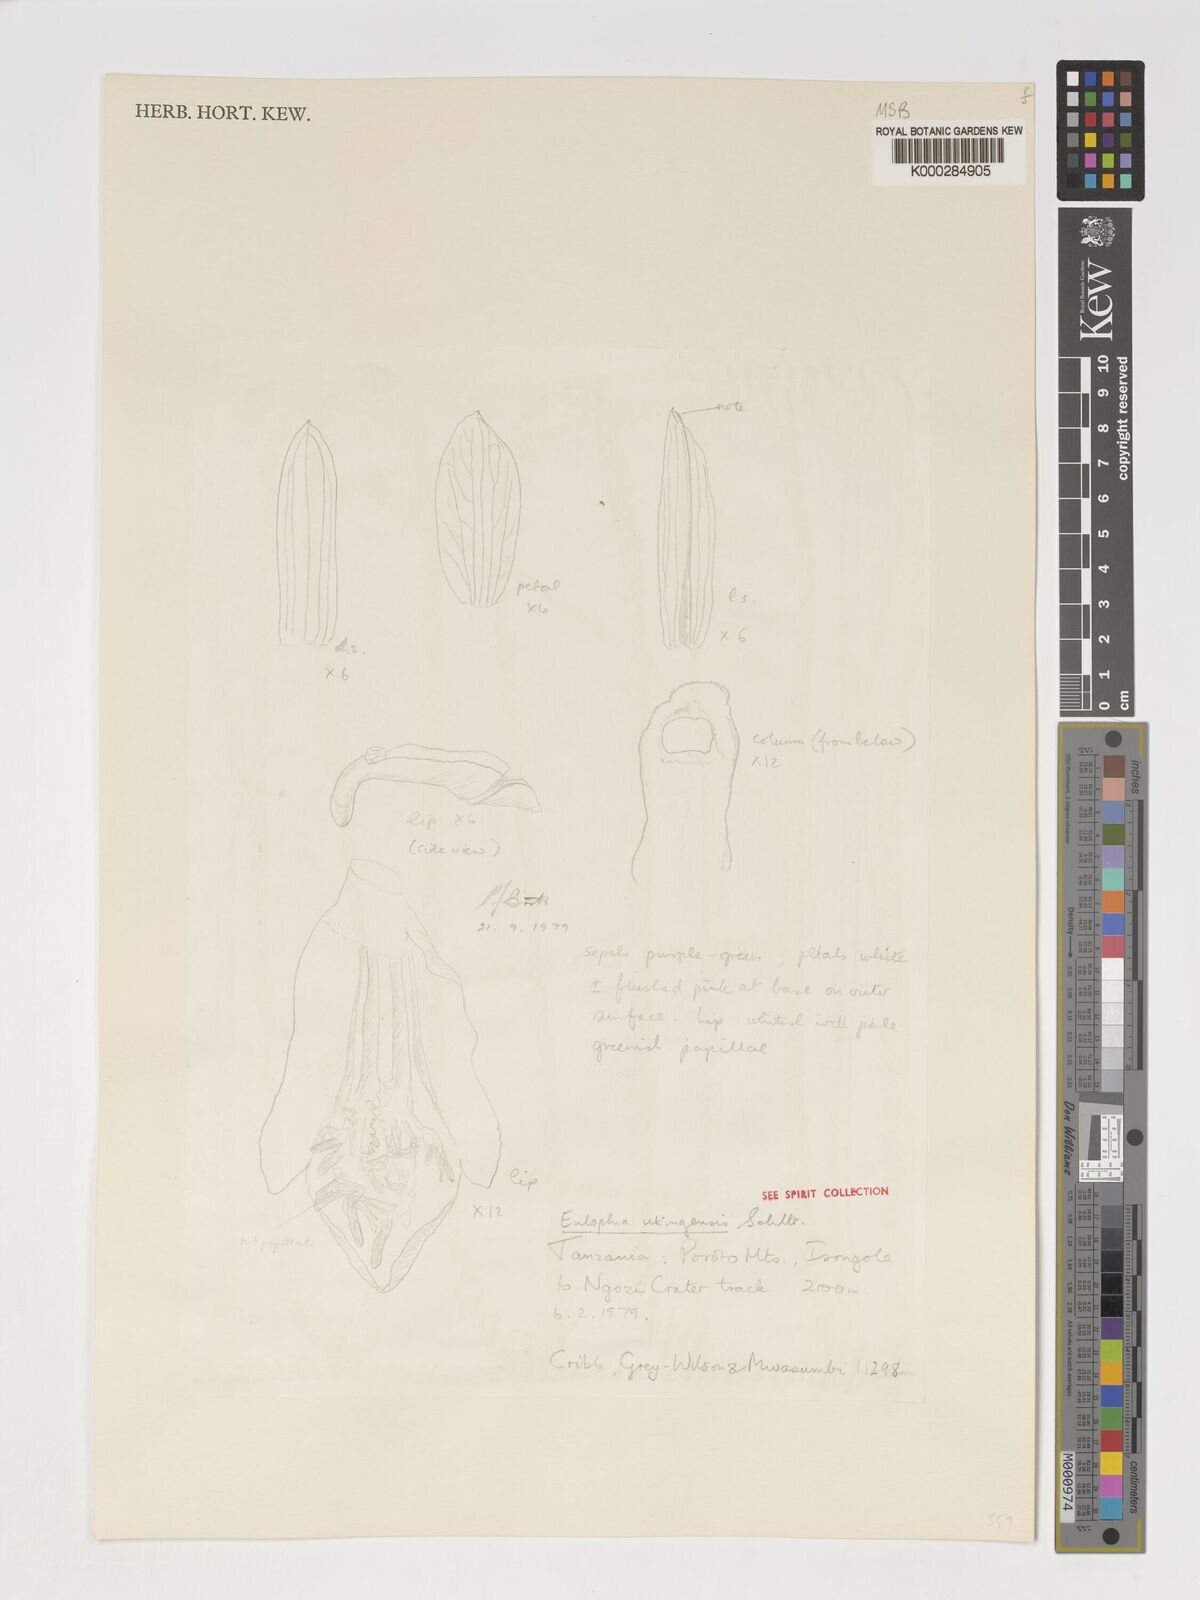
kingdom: Plantae
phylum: Tracheophyta
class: Liliopsida
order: Asparagales
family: Orchidaceae
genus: Eulophia
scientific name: Eulophia hians
